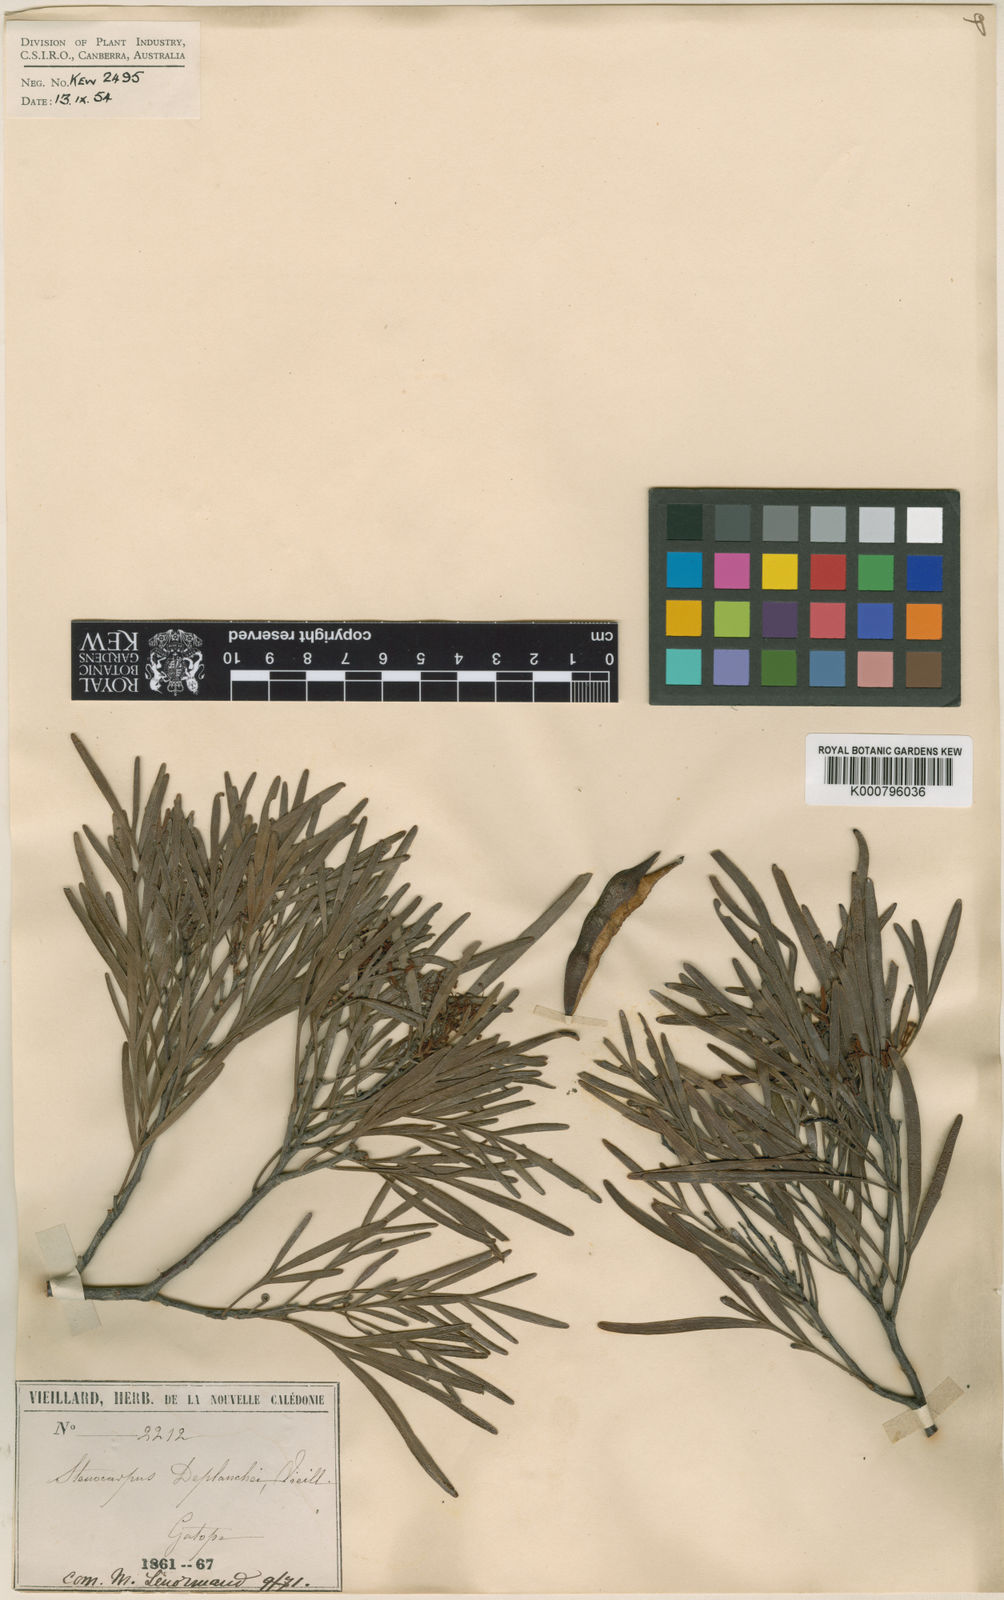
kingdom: Plantae
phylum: Tracheophyta
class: Magnoliopsida
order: Proteales
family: Proteaceae
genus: Stenocarpus
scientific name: Stenocarpus
